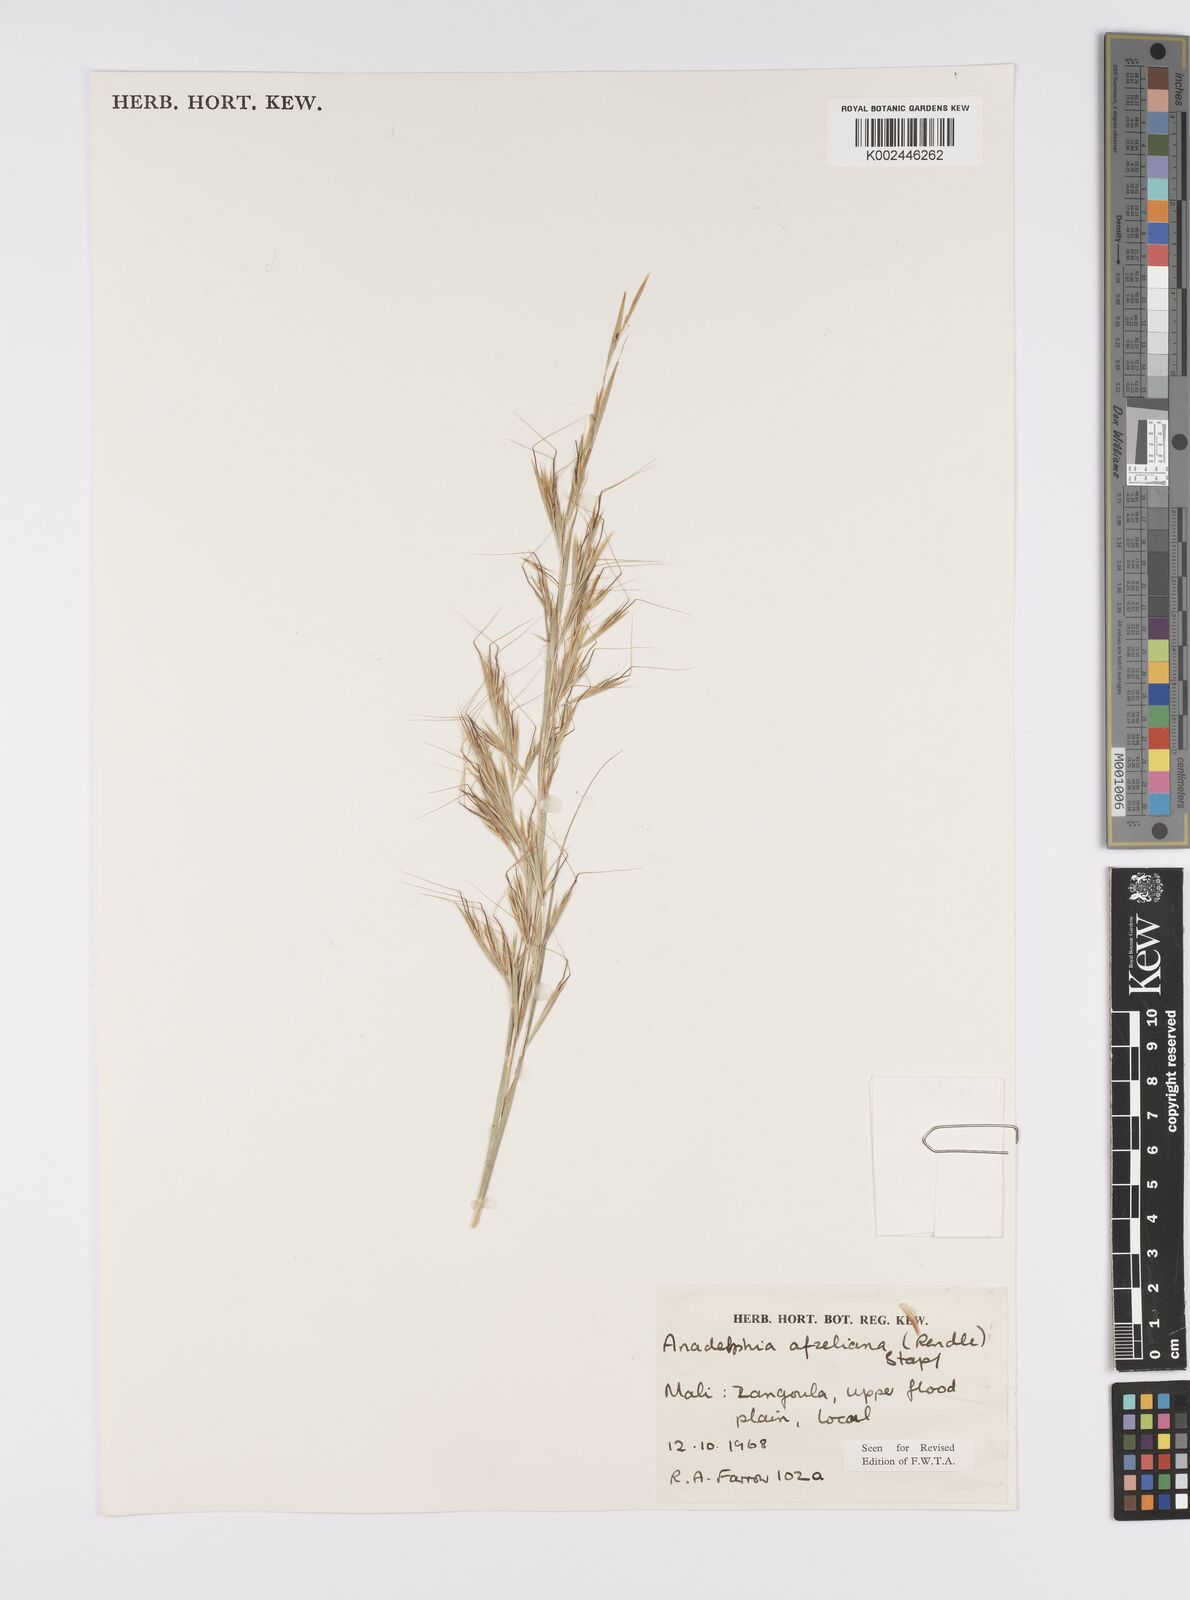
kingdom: Plantae
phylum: Tracheophyta
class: Liliopsida
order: Poales
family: Poaceae
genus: Anadelphia
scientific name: Anadelphia afzeliana
